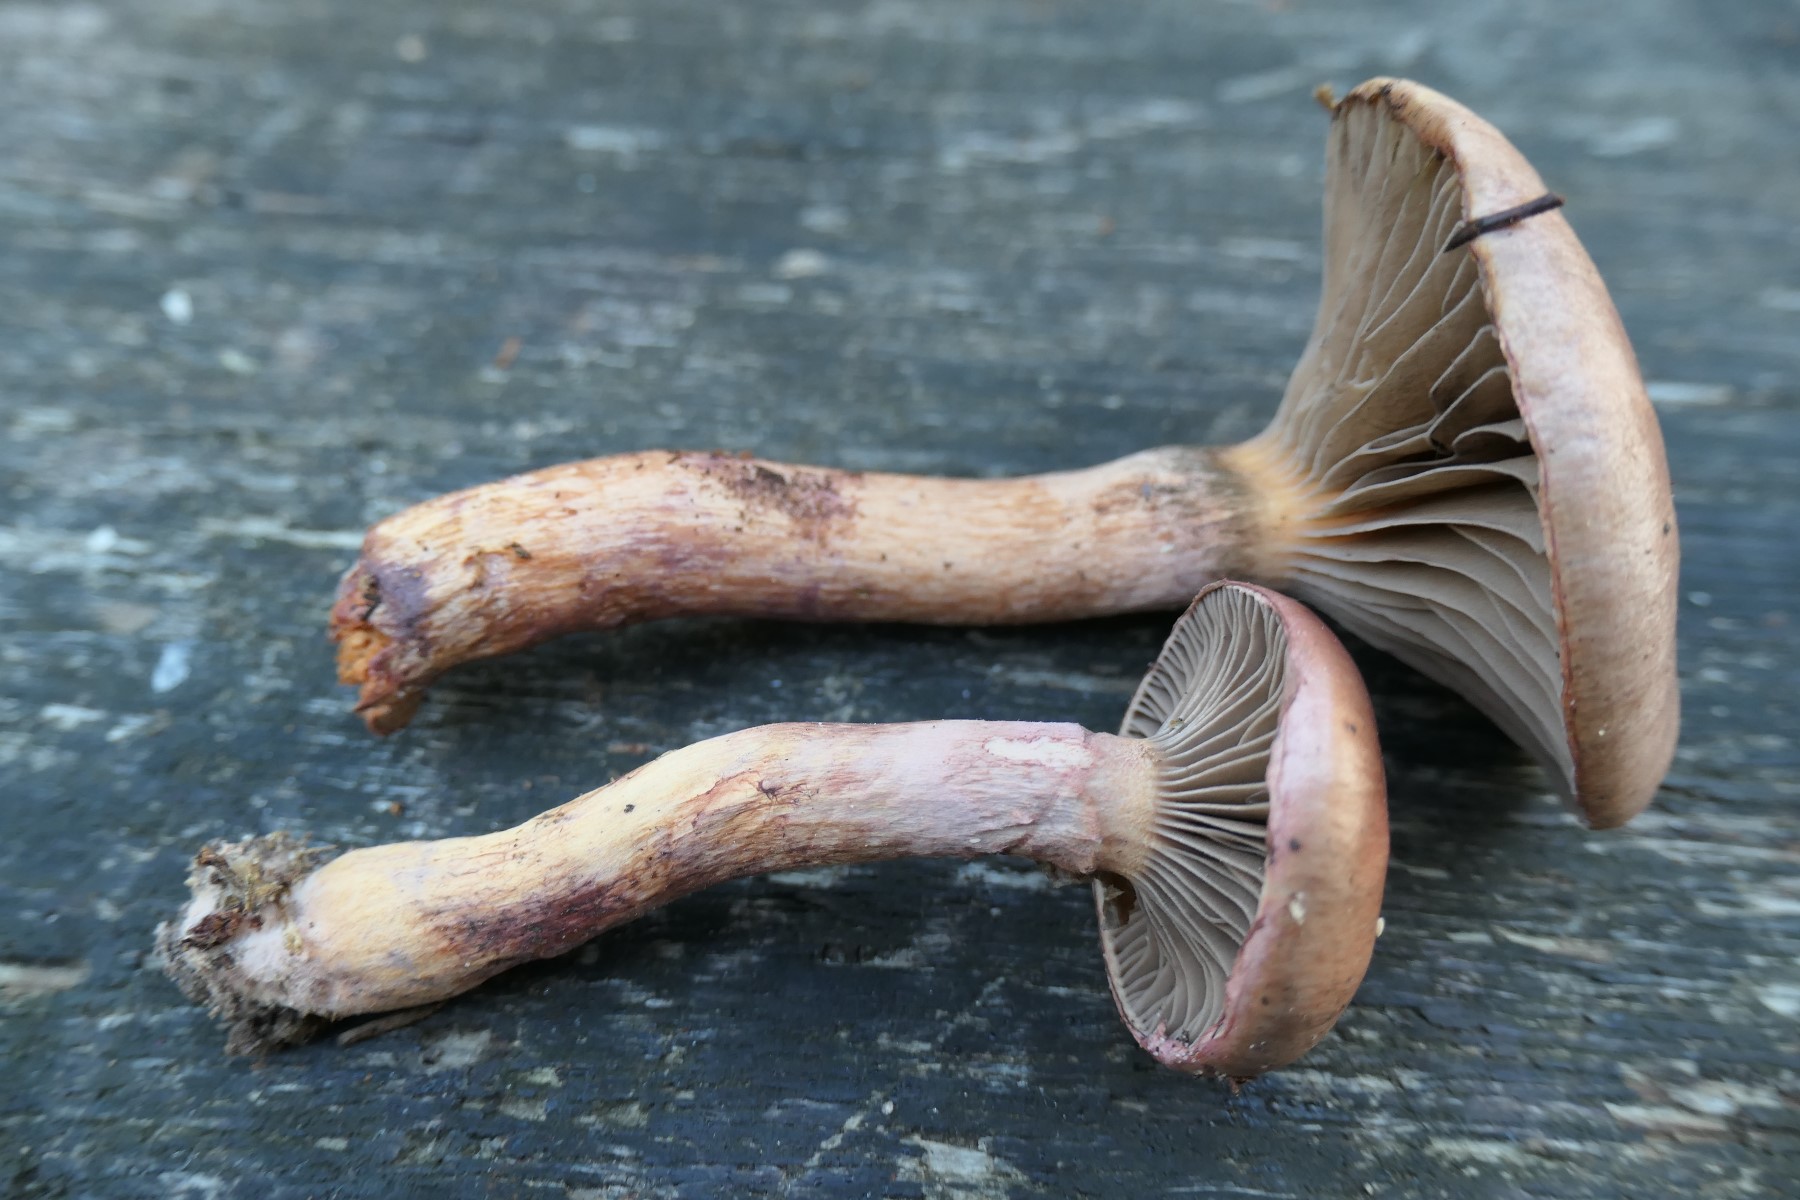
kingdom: Fungi
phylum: Basidiomycota
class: Agaricomycetes
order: Boletales
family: Gomphidiaceae
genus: Chroogomphus
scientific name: Chroogomphus rutilus
